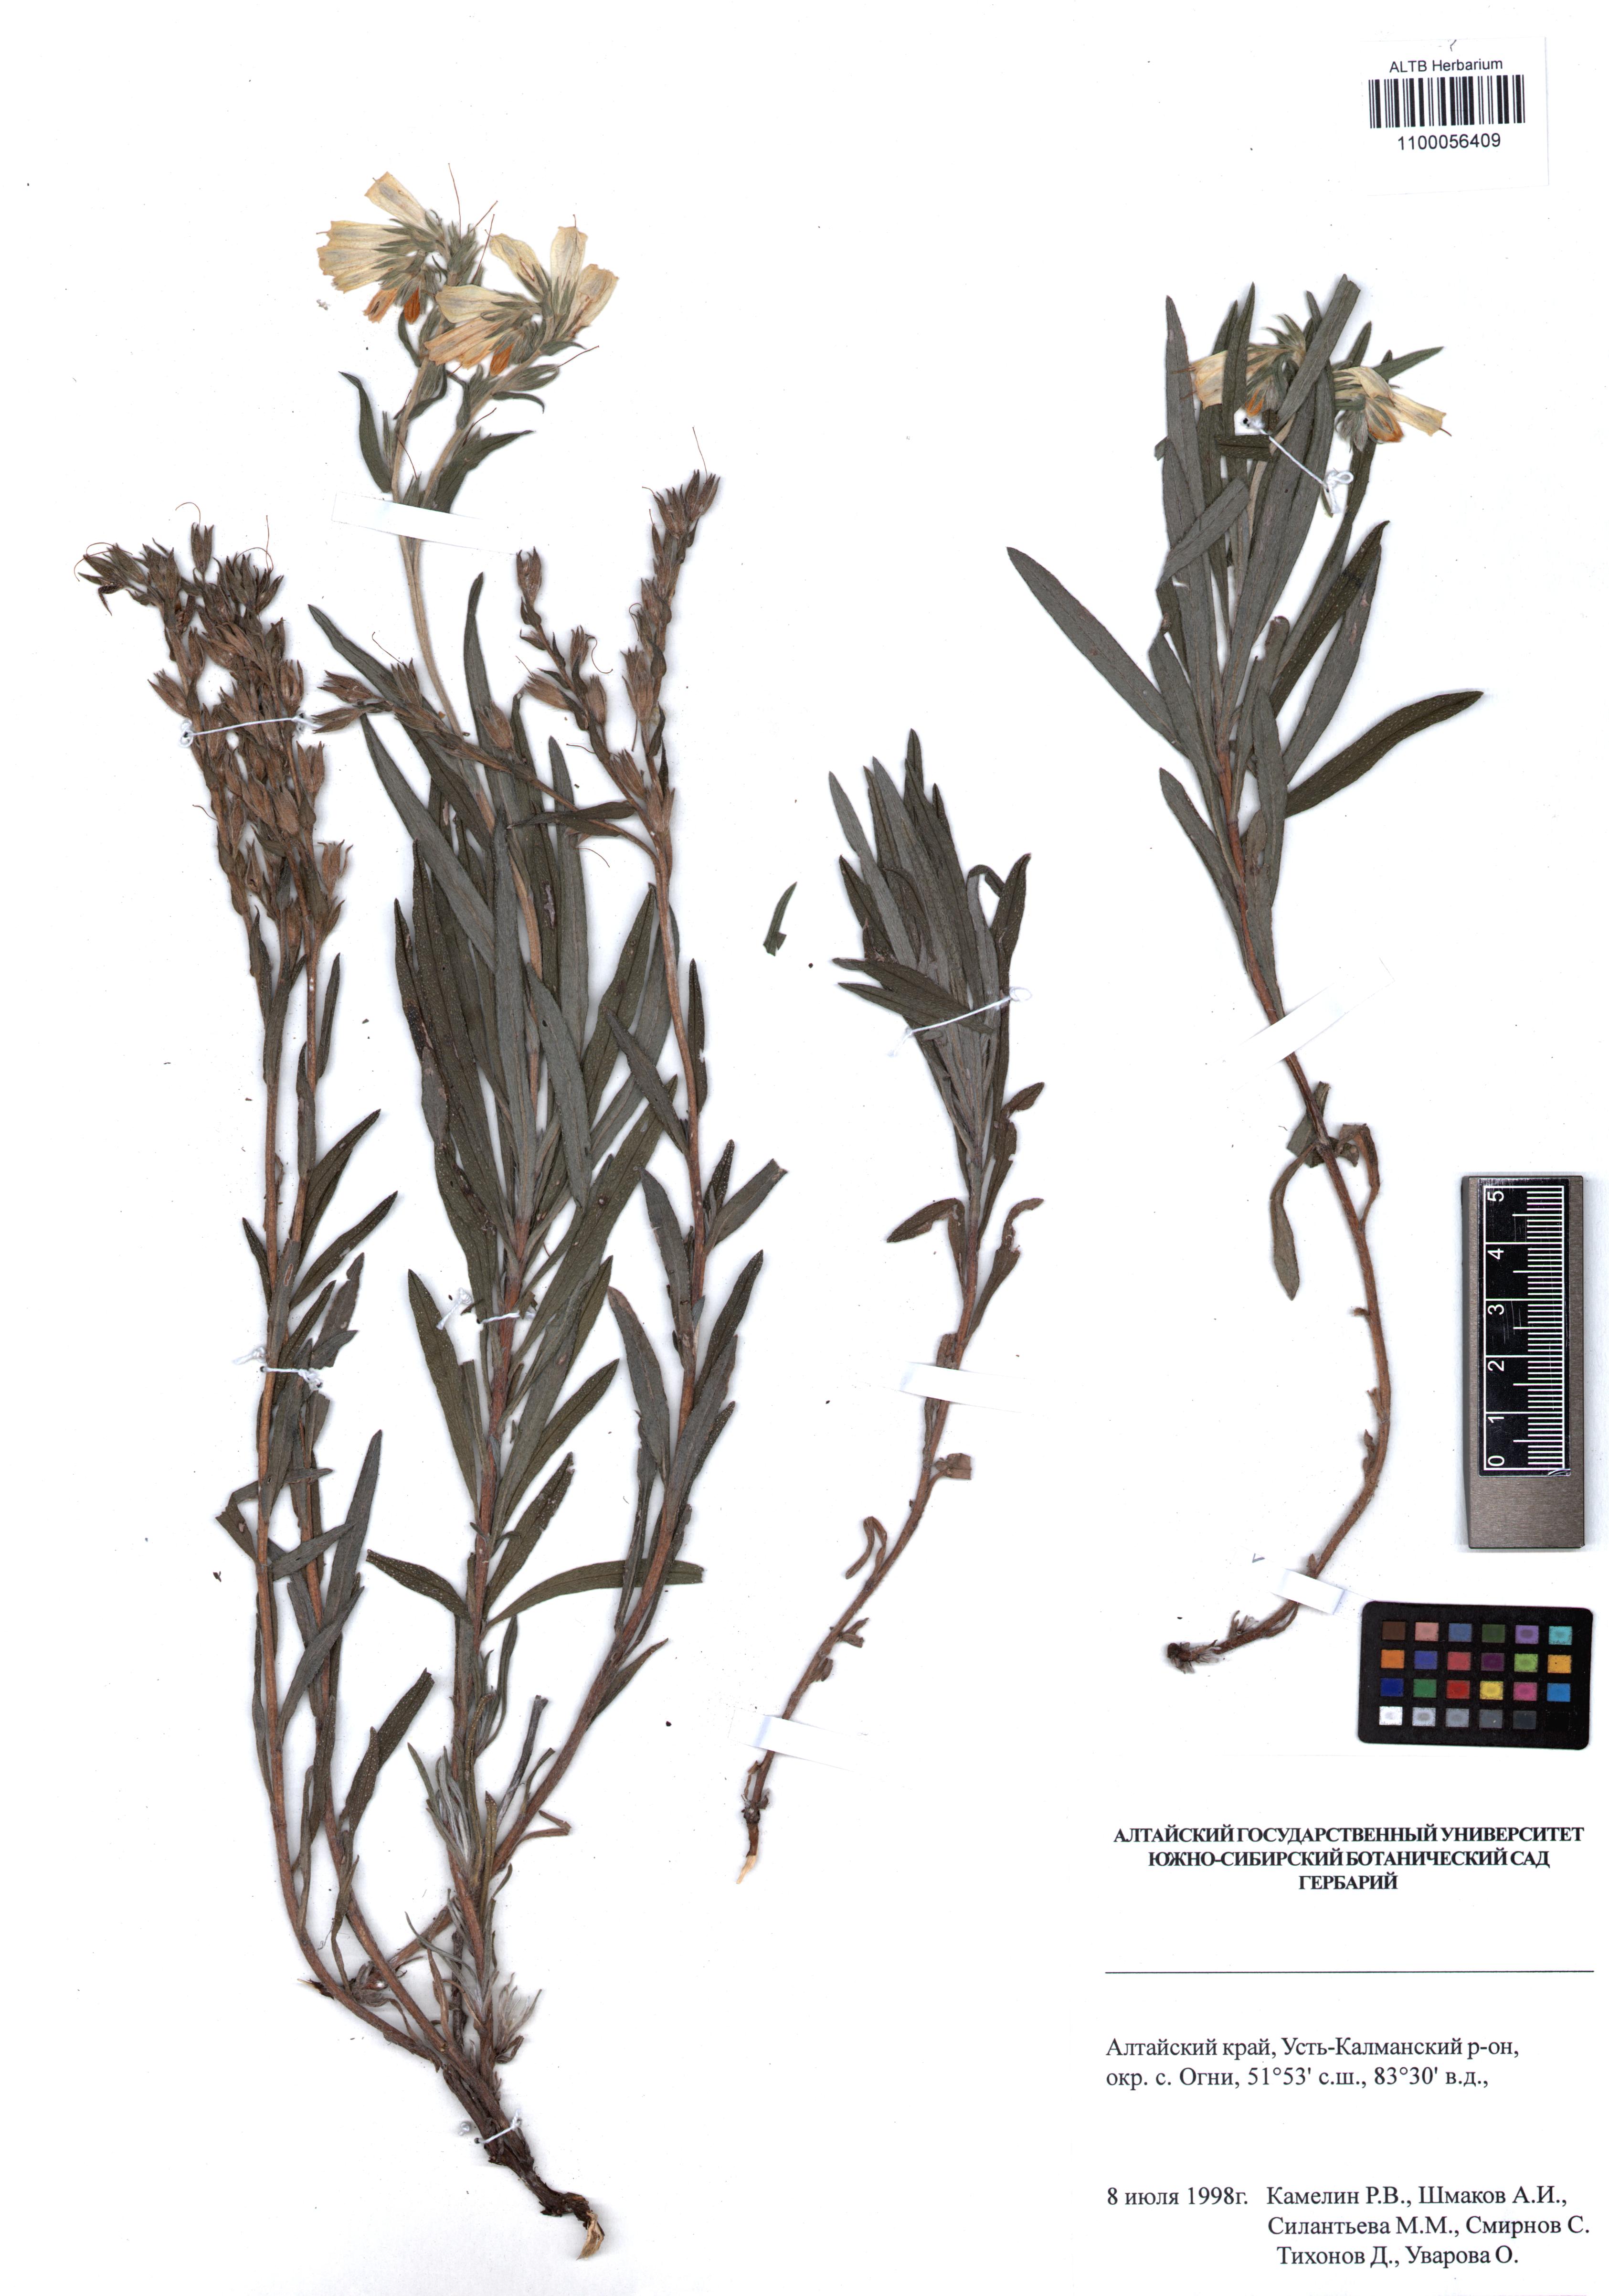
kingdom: Plantae
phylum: Tracheophyta
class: Magnoliopsida
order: Boraginales
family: Boraginaceae
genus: Onosma
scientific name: Onosma simplicissima
